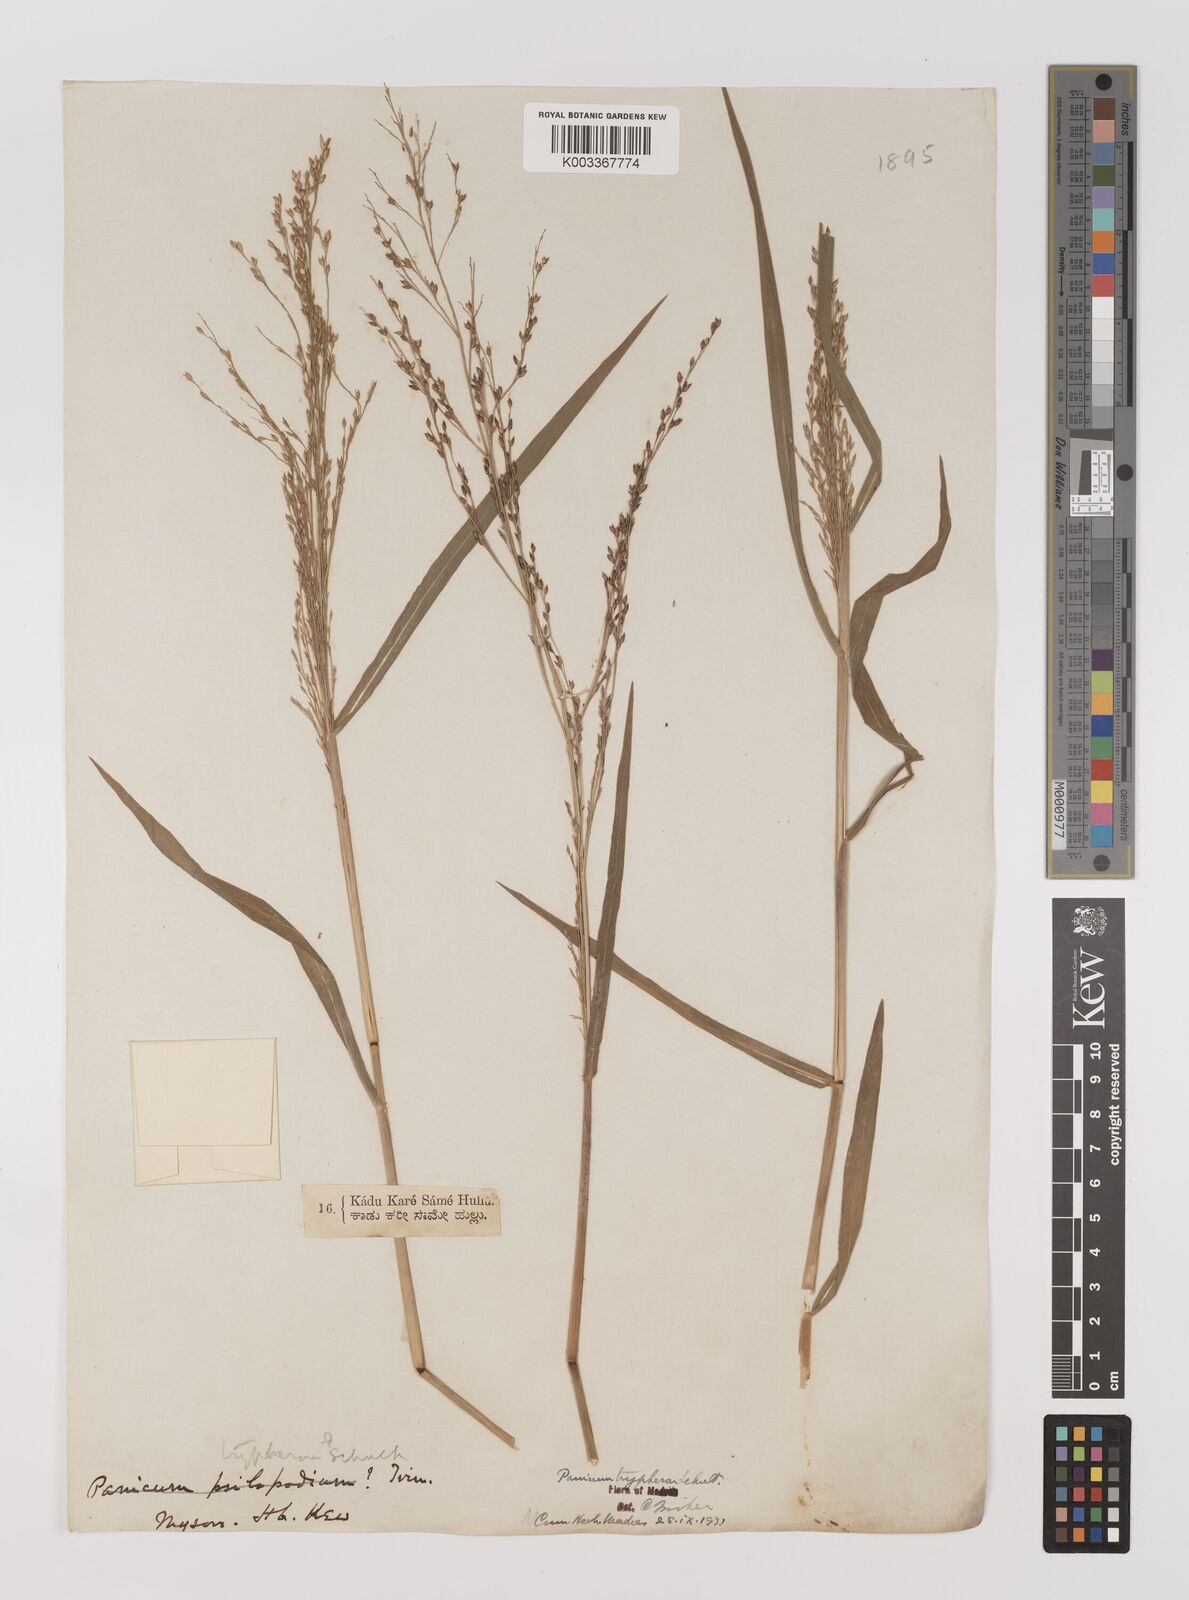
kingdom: Plantae
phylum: Tracheophyta
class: Liliopsida
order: Poales
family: Poaceae
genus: Panicum
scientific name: Panicum curviflorum
